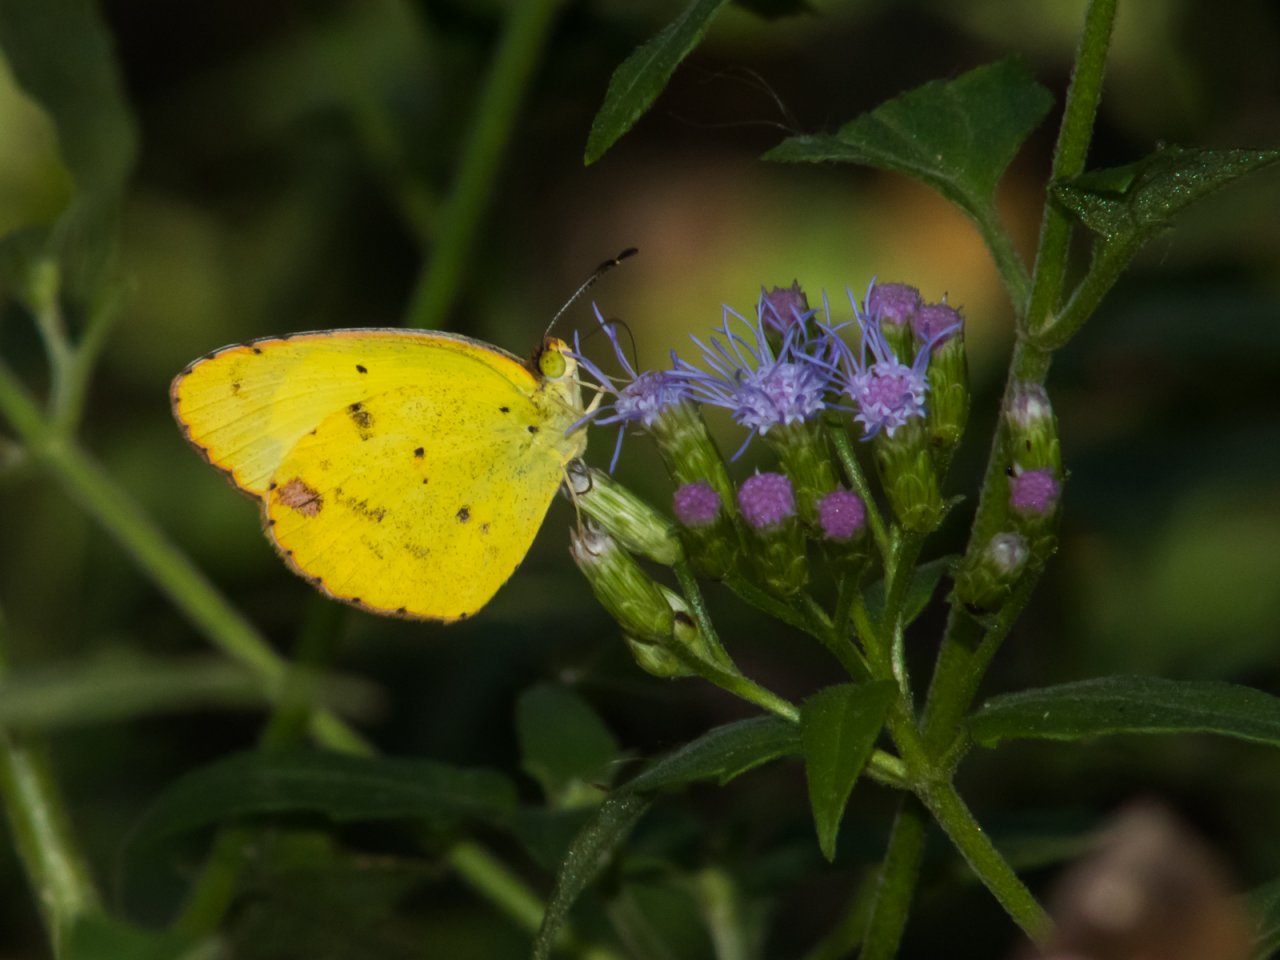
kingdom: Animalia
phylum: Arthropoda
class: Insecta
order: Lepidoptera
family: Pieridae
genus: Pyrisitia
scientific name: Pyrisitia lisa
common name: Little Yellow
